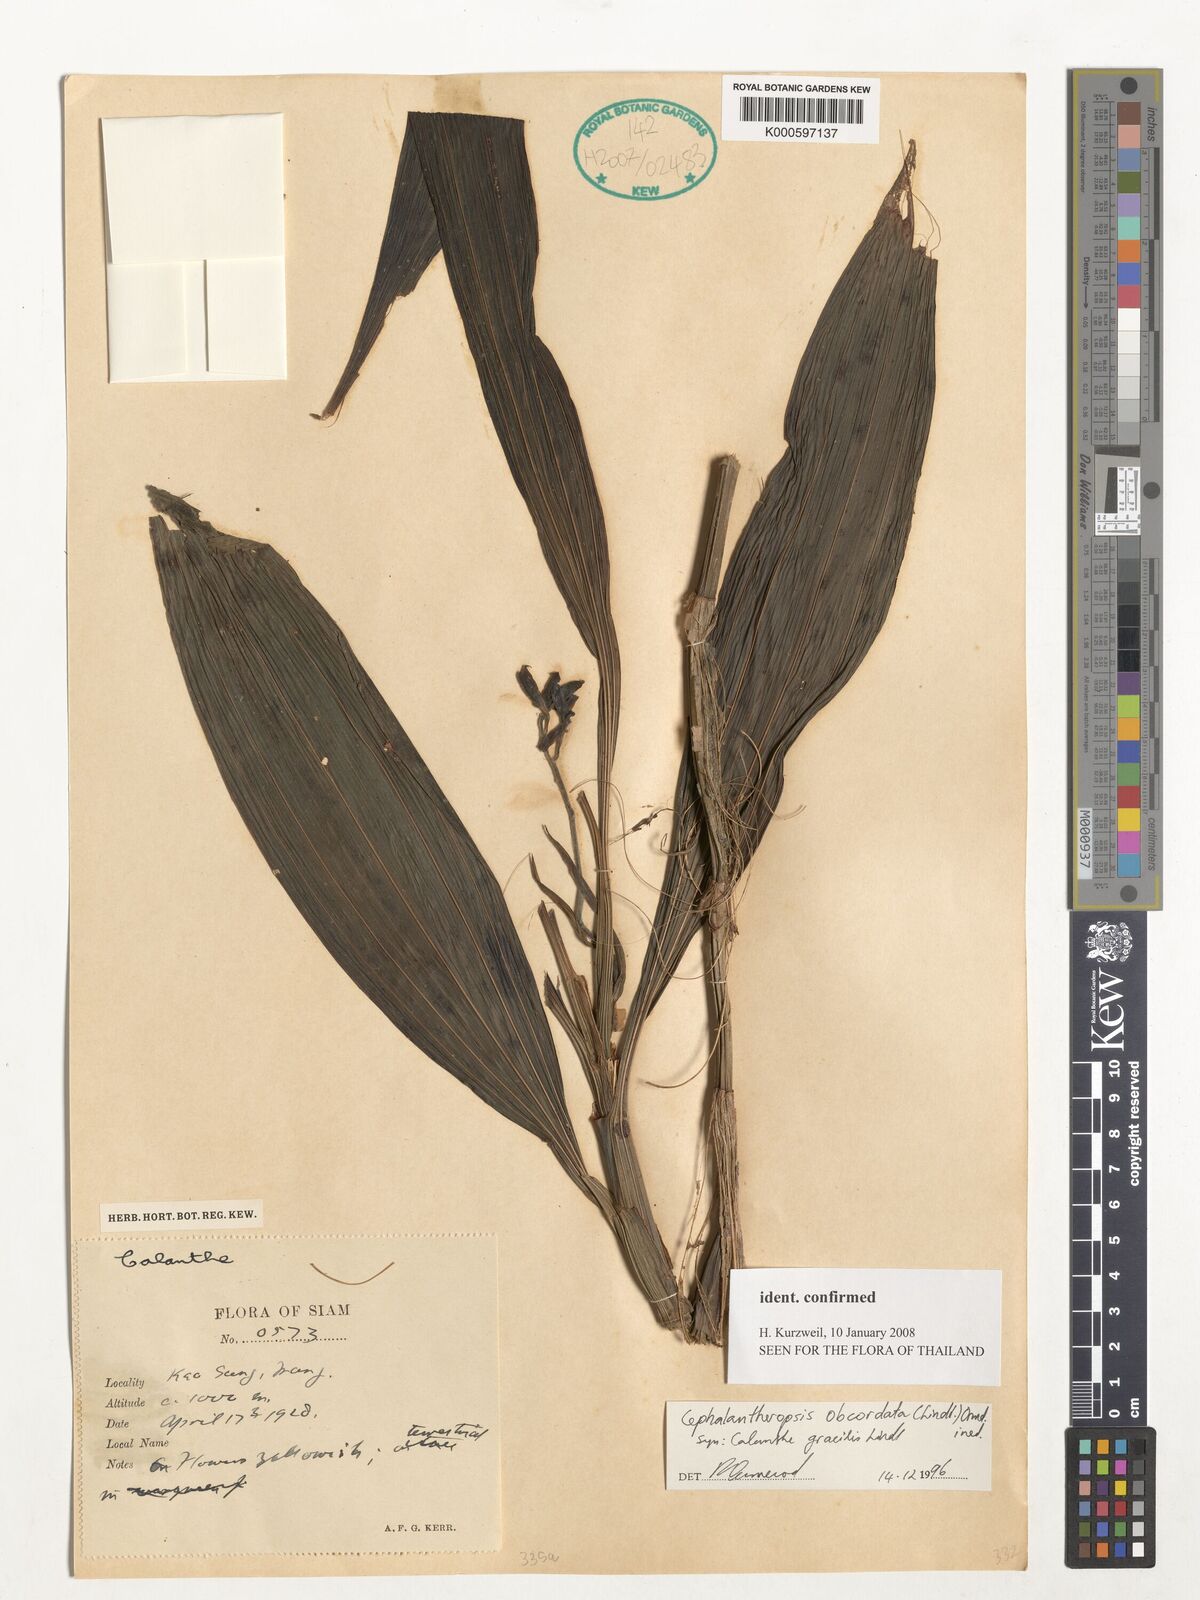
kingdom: Plantae
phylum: Tracheophyta
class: Liliopsida
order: Asparagales
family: Orchidaceae
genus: Calanthe
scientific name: Calanthe obcordata
